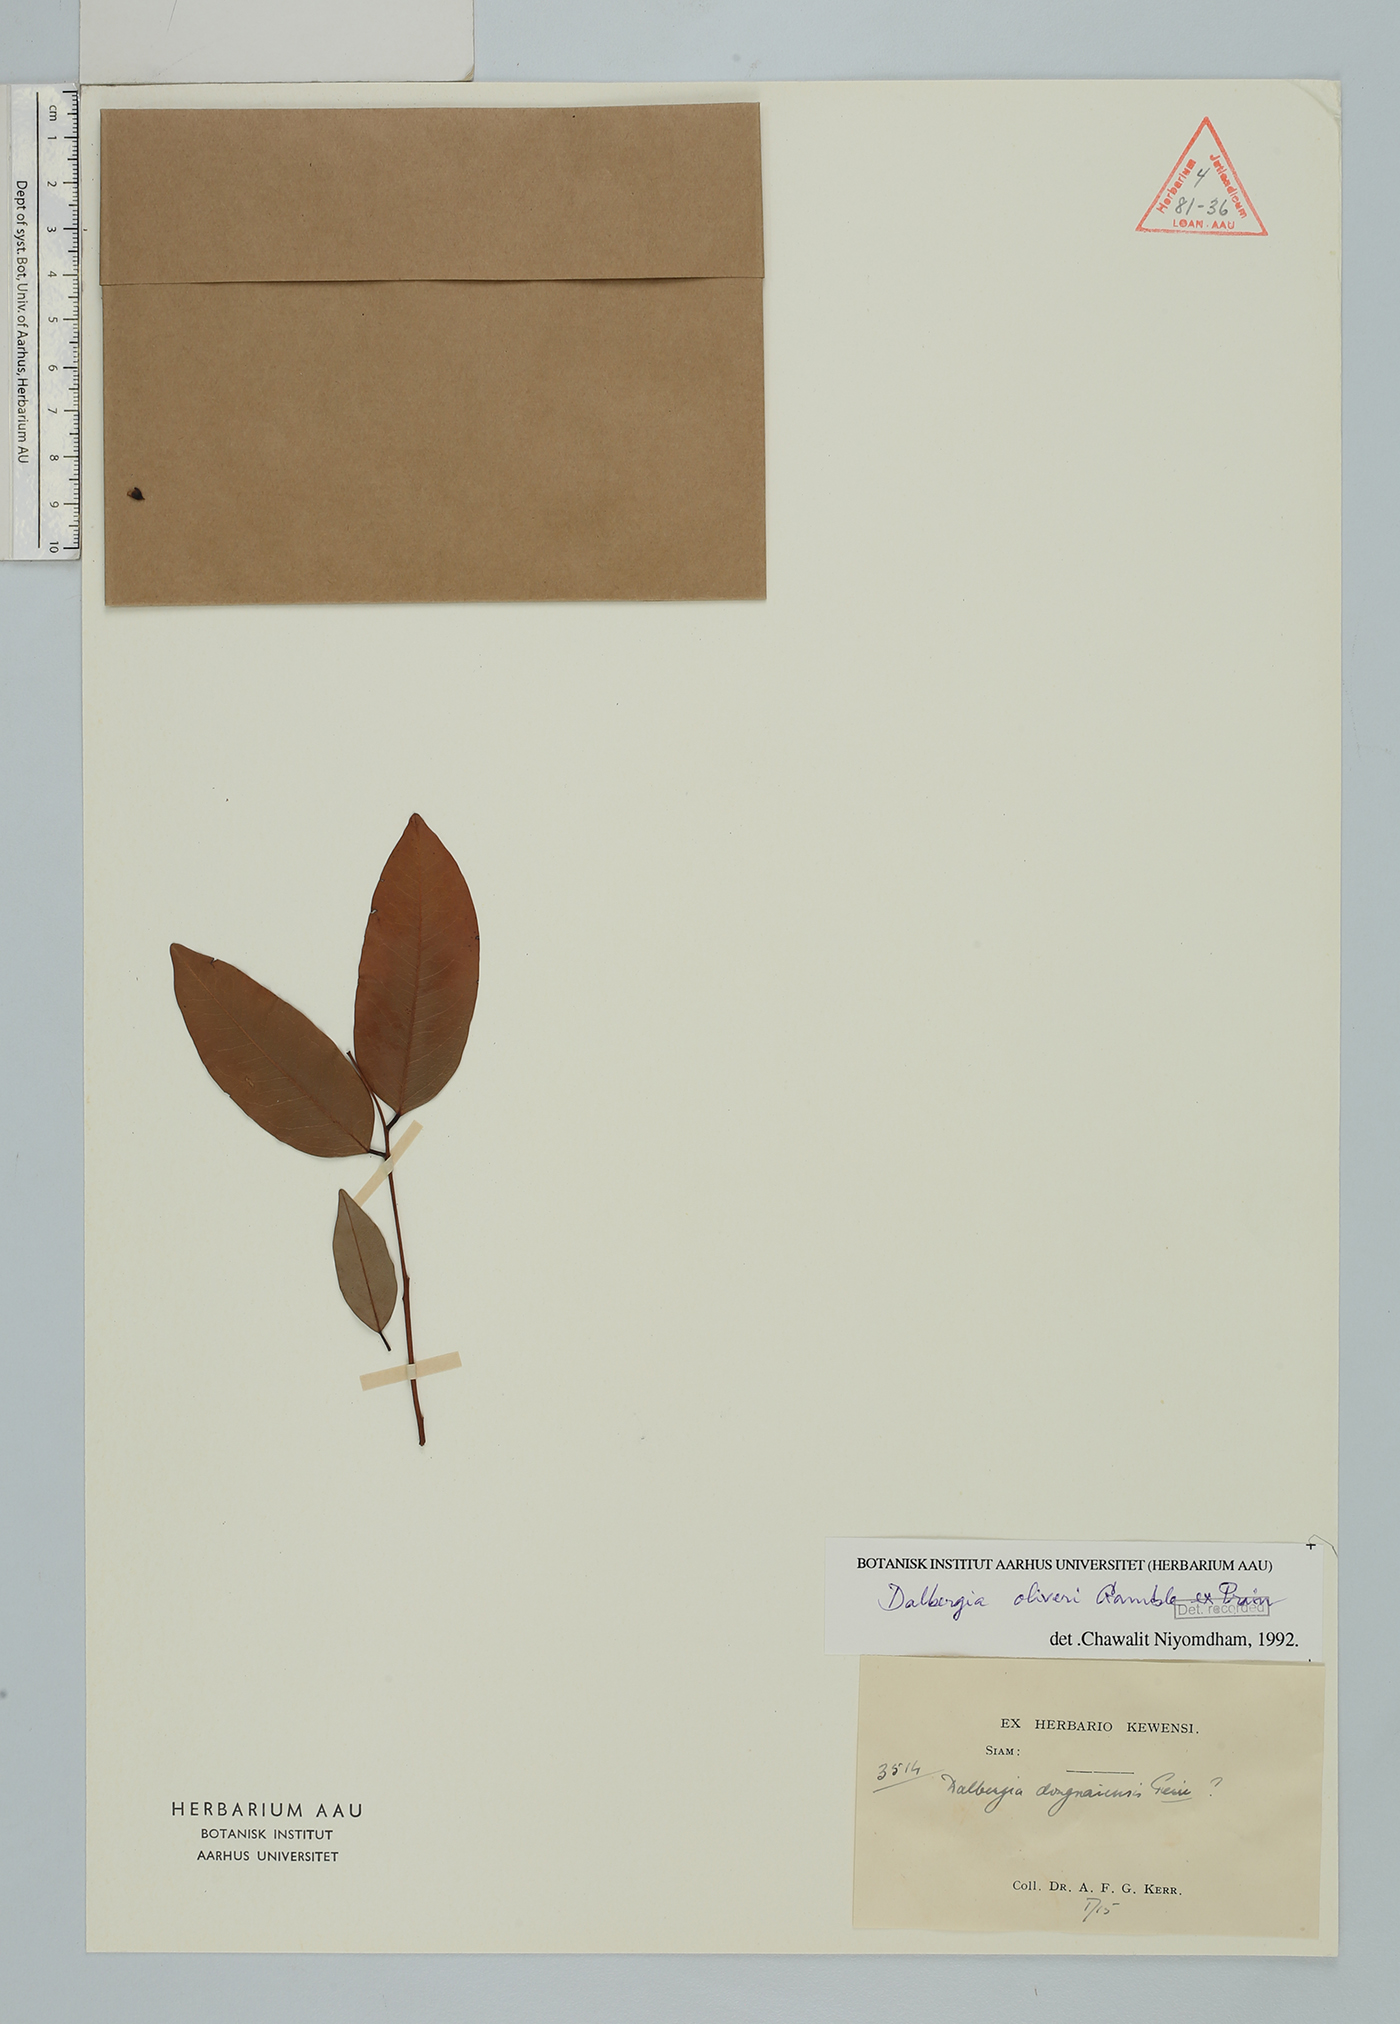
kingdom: Plantae
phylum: Tracheophyta
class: Magnoliopsida
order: Fabales
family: Fabaceae
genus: Dalbergia
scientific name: Dalbergia oliveri
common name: Burmese rosewood
